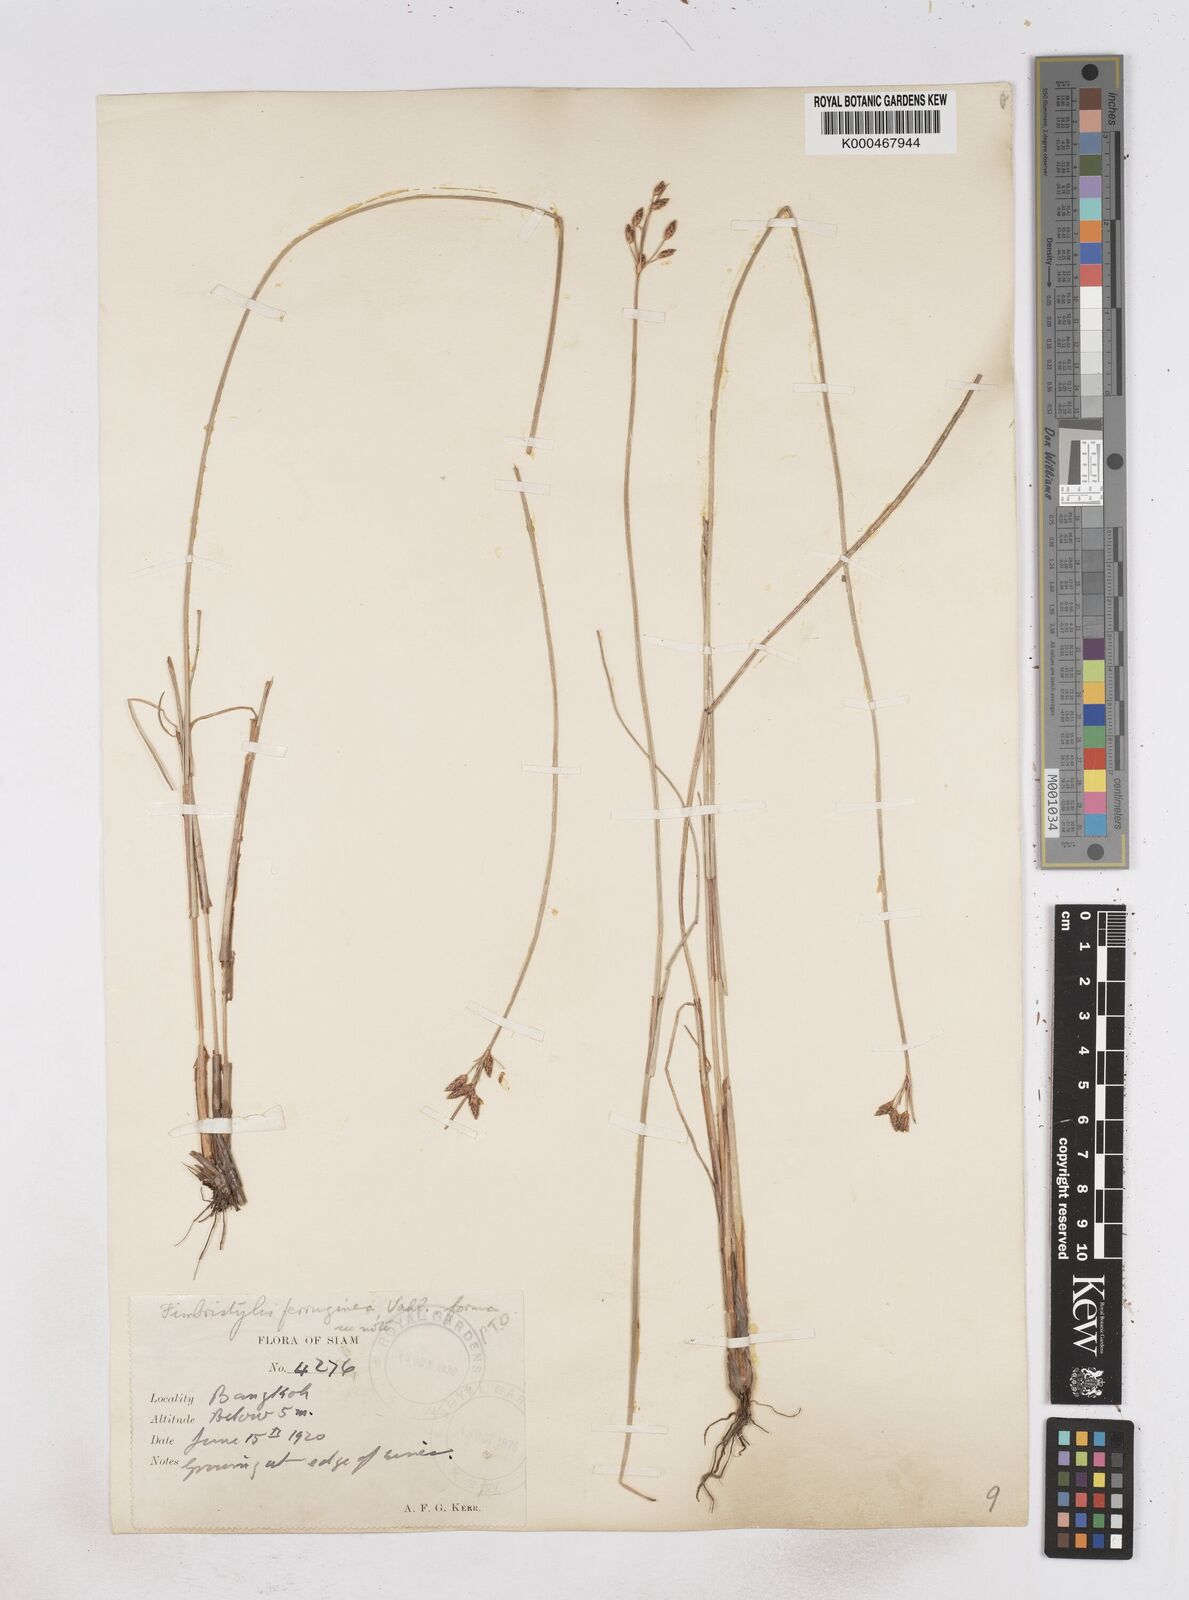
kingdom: Plantae
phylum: Tracheophyta
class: Liliopsida
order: Poales
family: Cyperaceae
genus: Fimbristylis
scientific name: Fimbristylis ferruginea
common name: West indian fimbry
